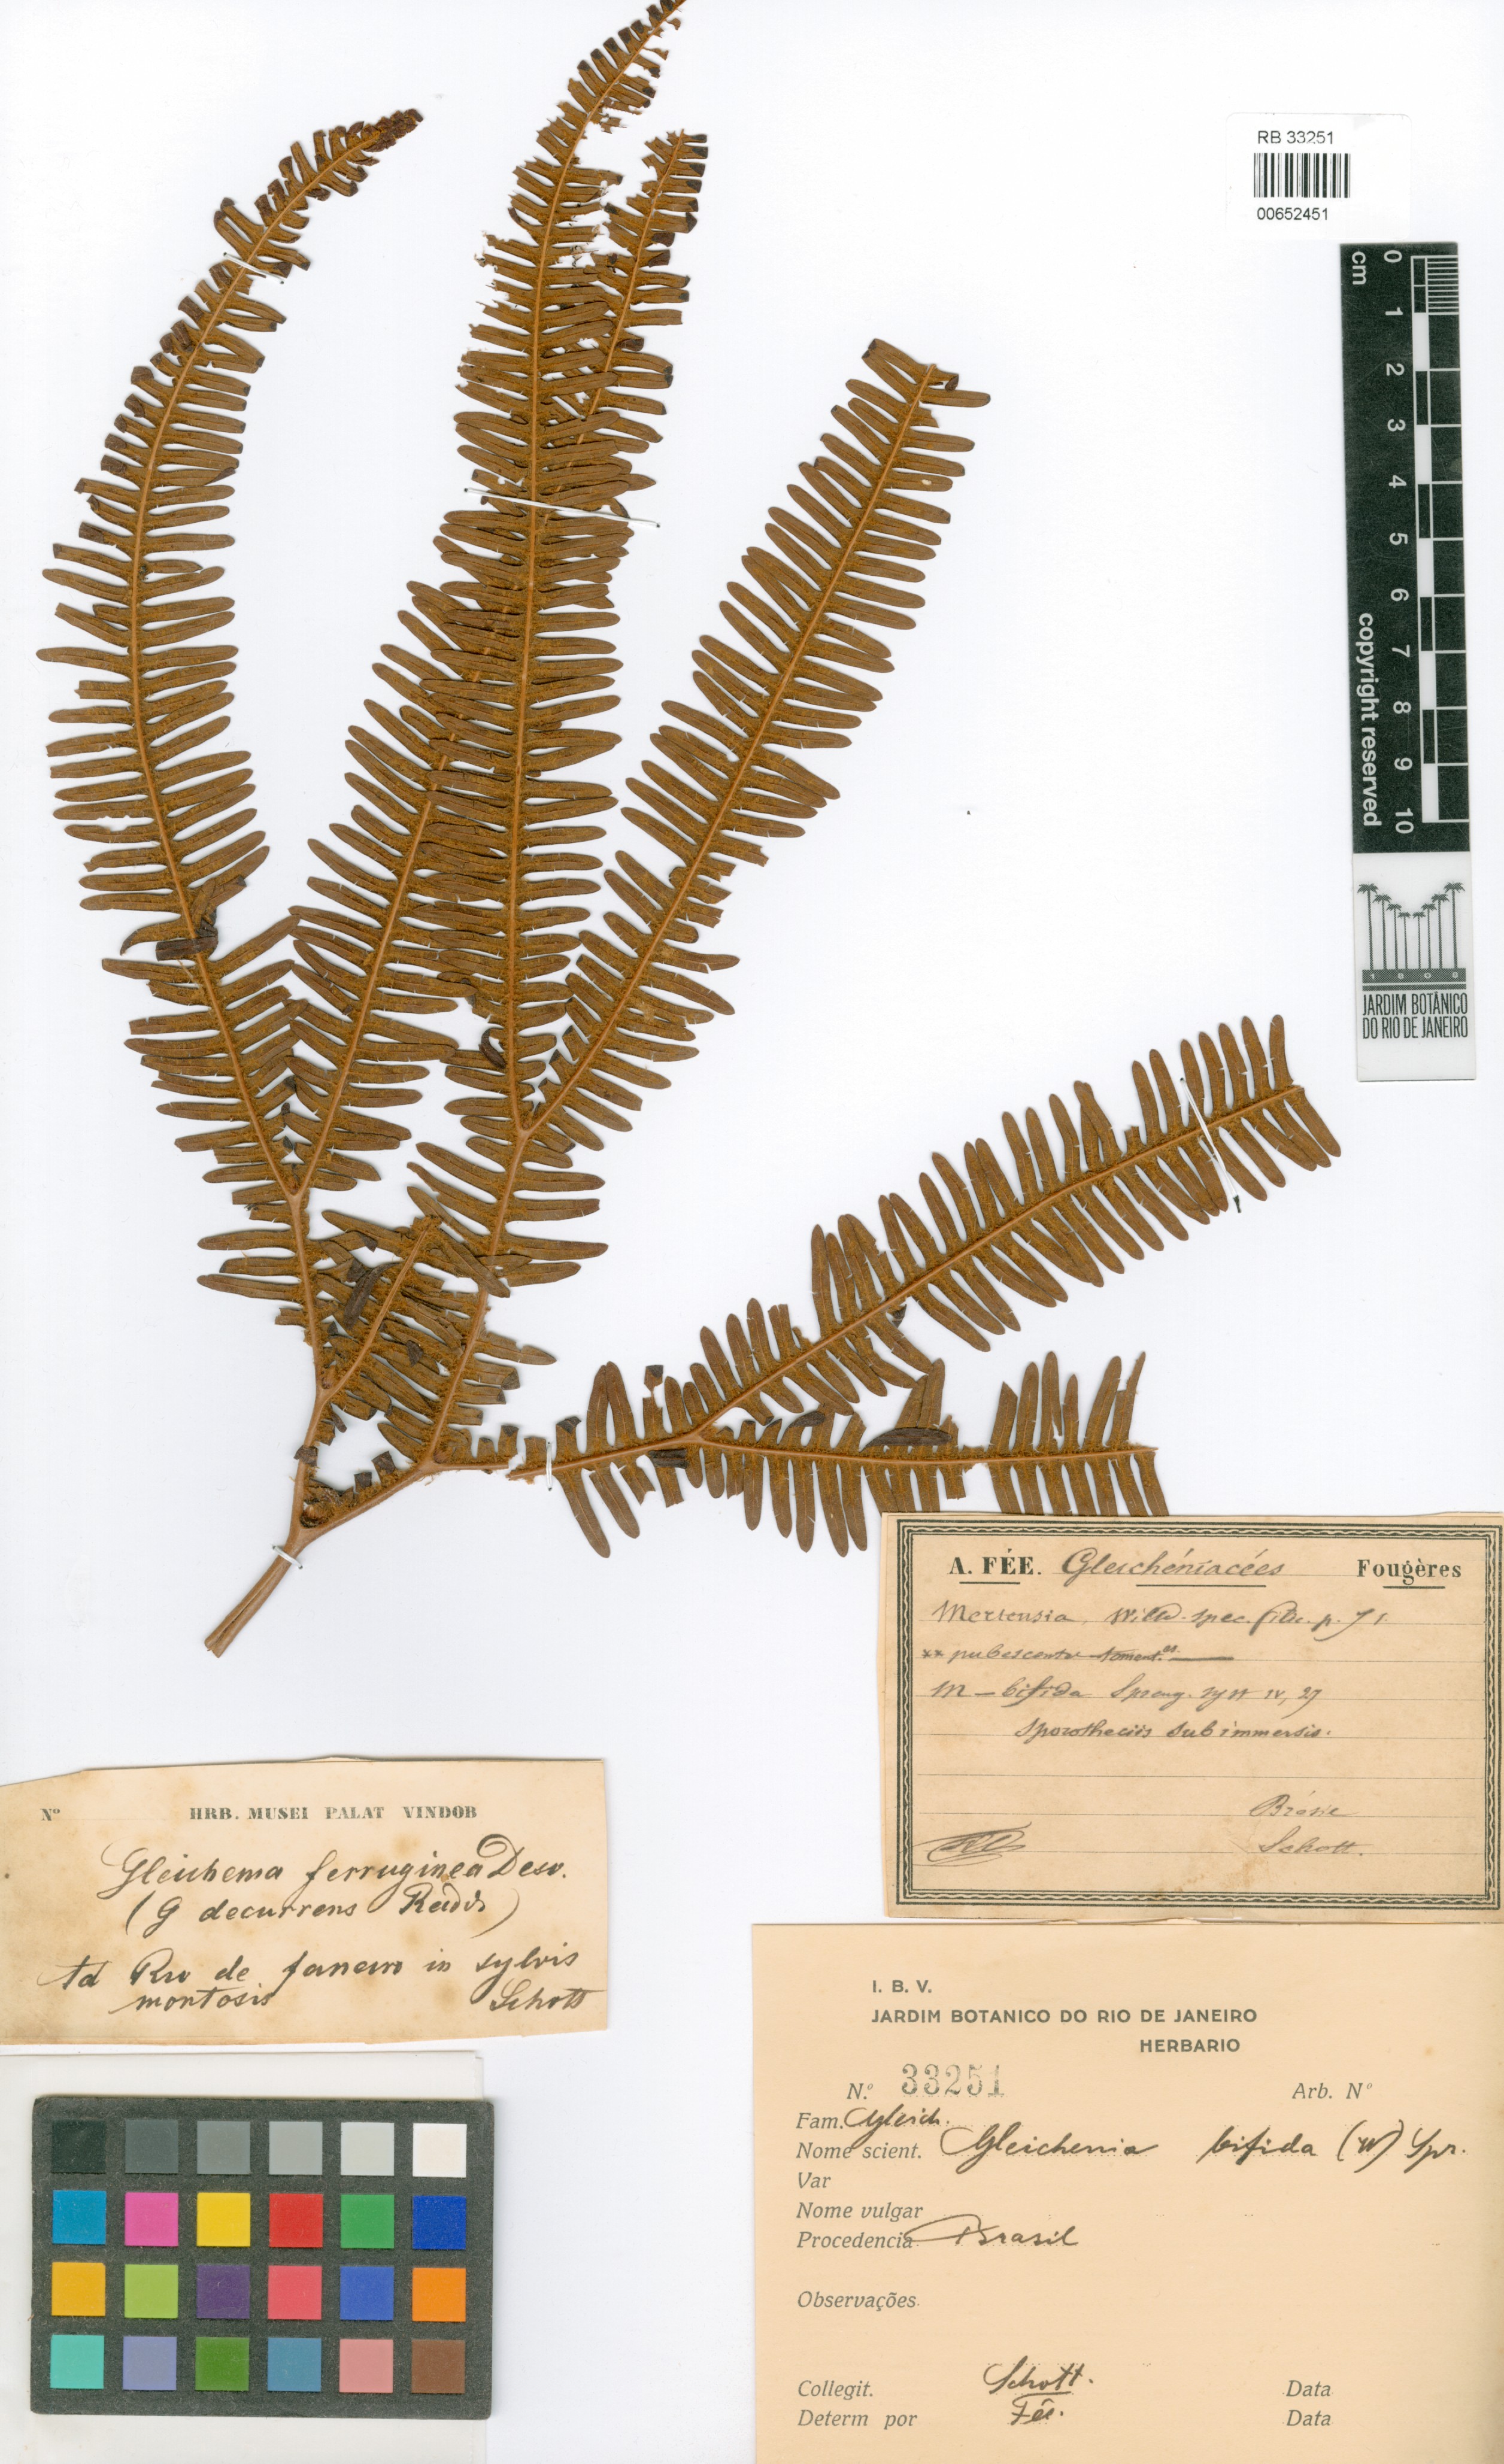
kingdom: Plantae
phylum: Tracheophyta
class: Polypodiopsida
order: Gleicheniales
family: Gleicheniaceae
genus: Sticherus
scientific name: Sticherus bifidus
